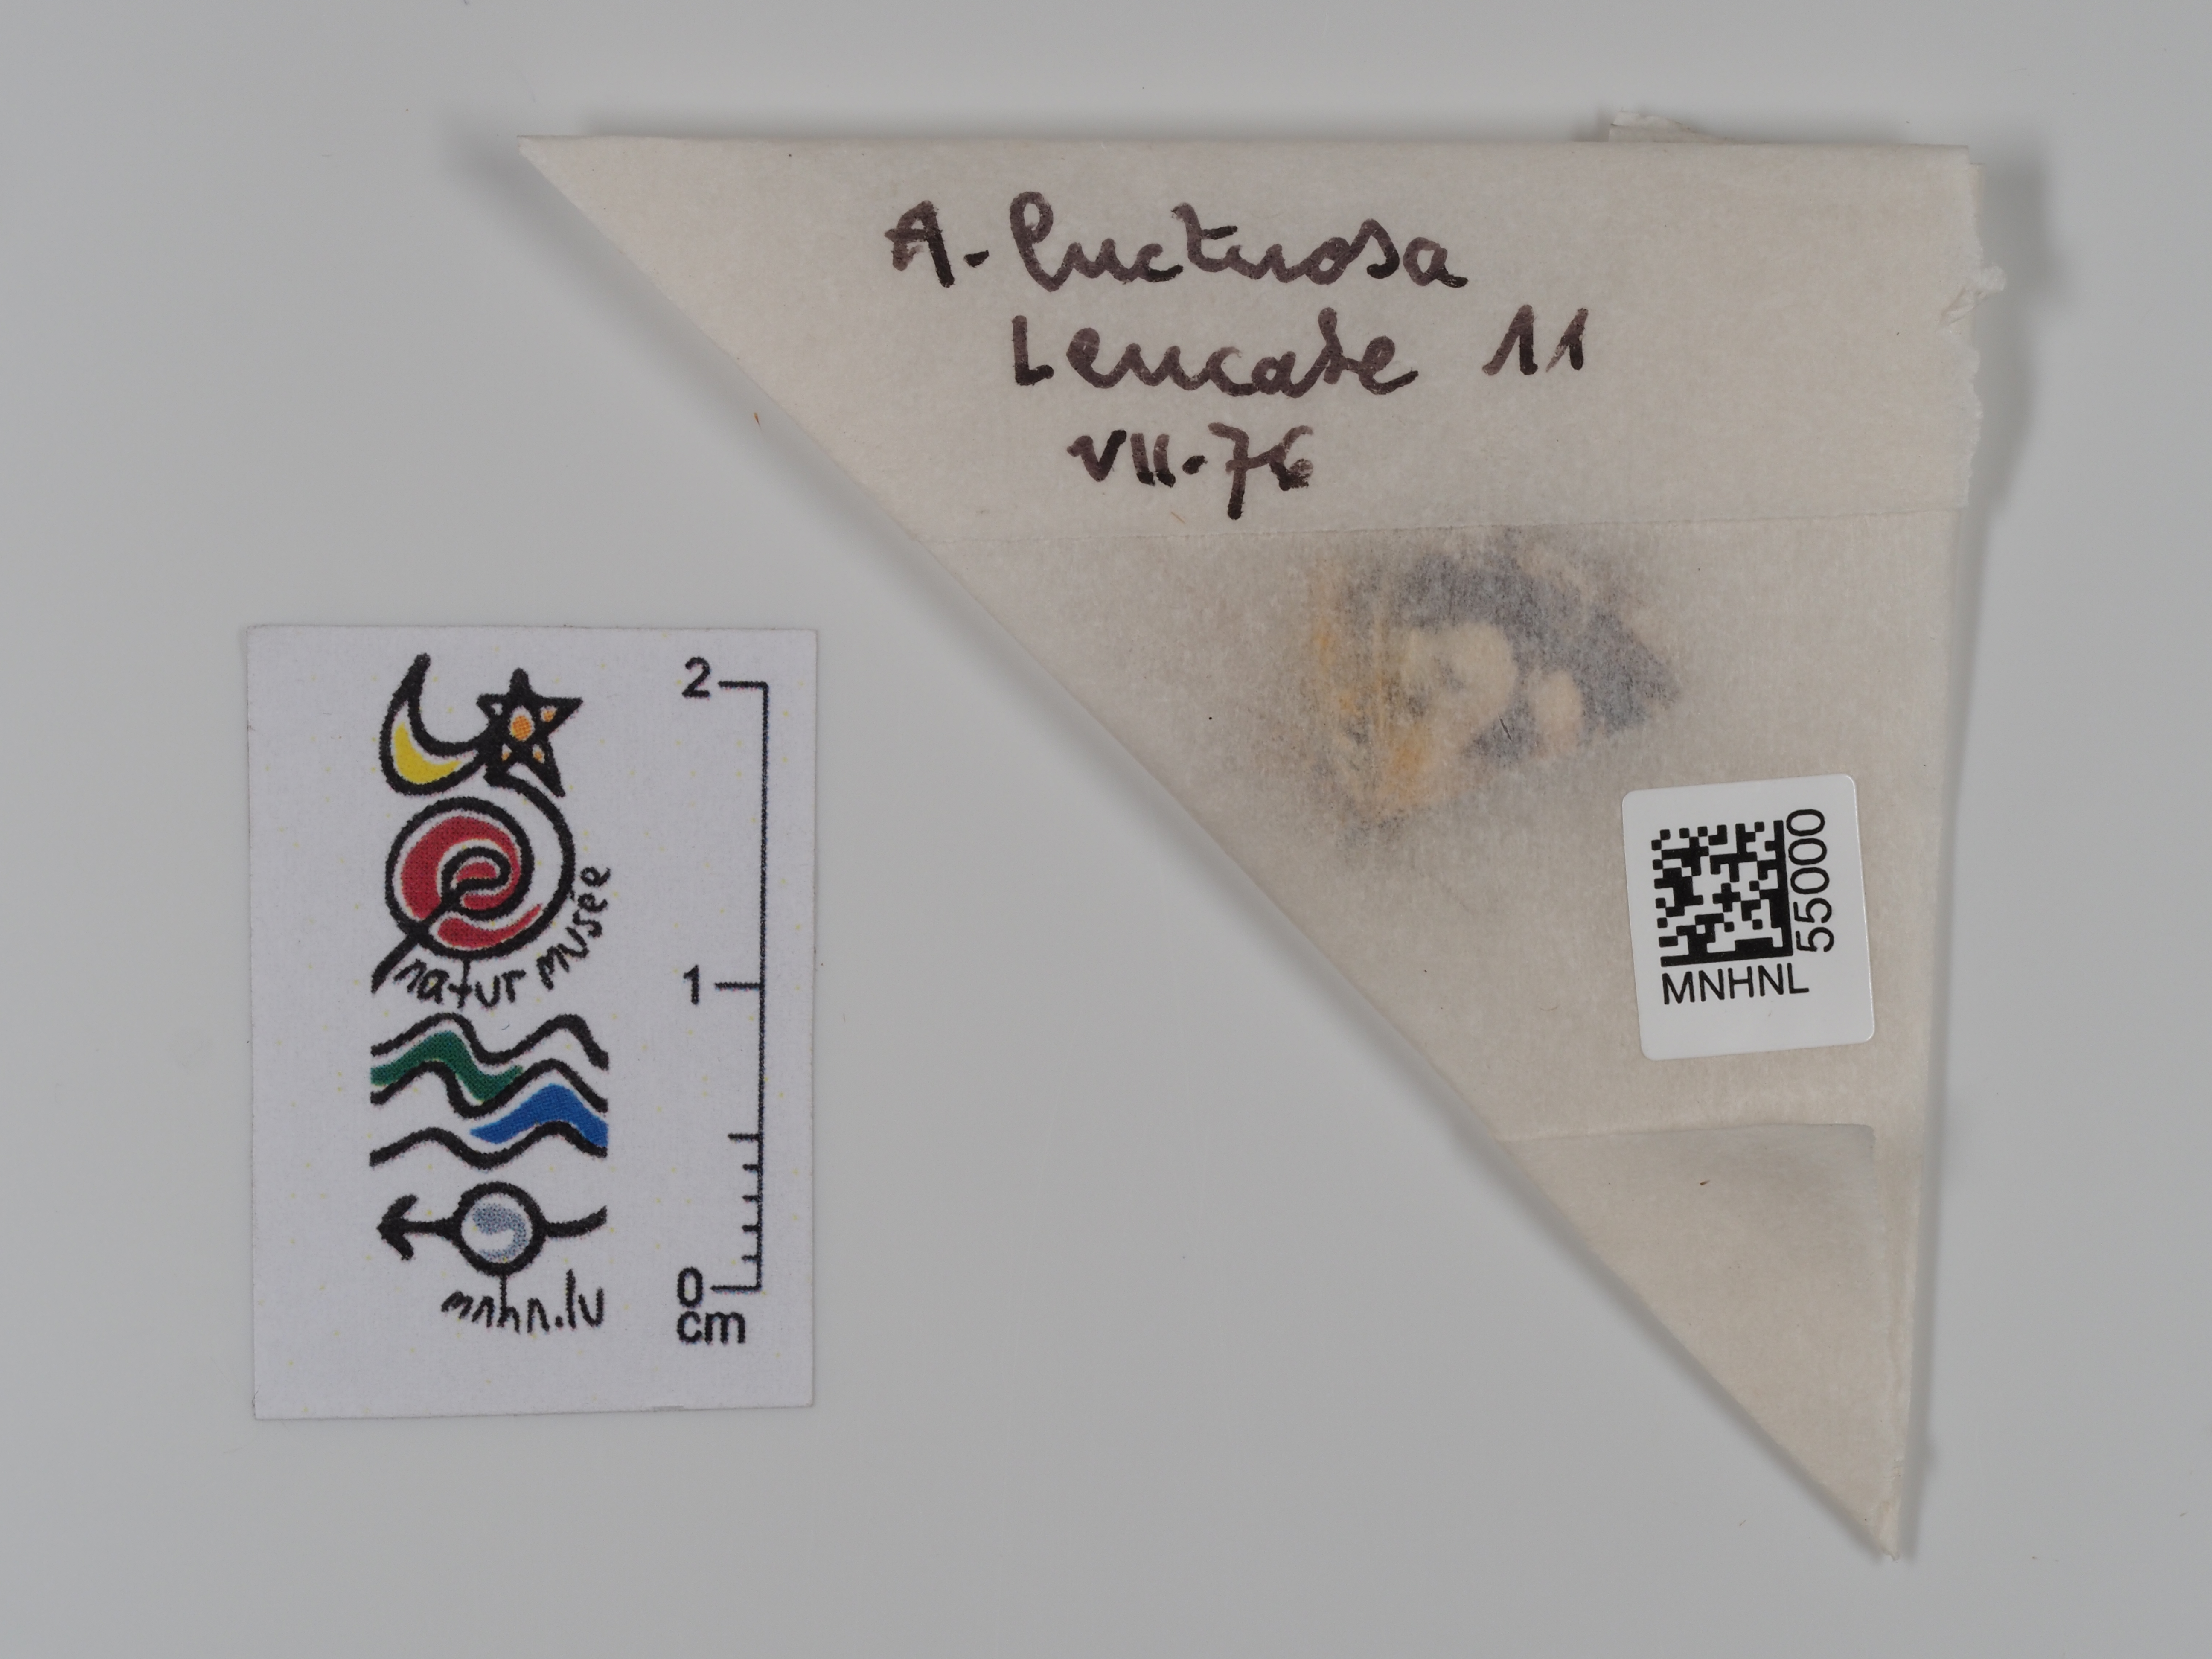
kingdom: Animalia
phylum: Arthropoda
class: Insecta
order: Lepidoptera
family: Erebidae
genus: Tyta
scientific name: Tyta luctuosa
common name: Four-spotted
